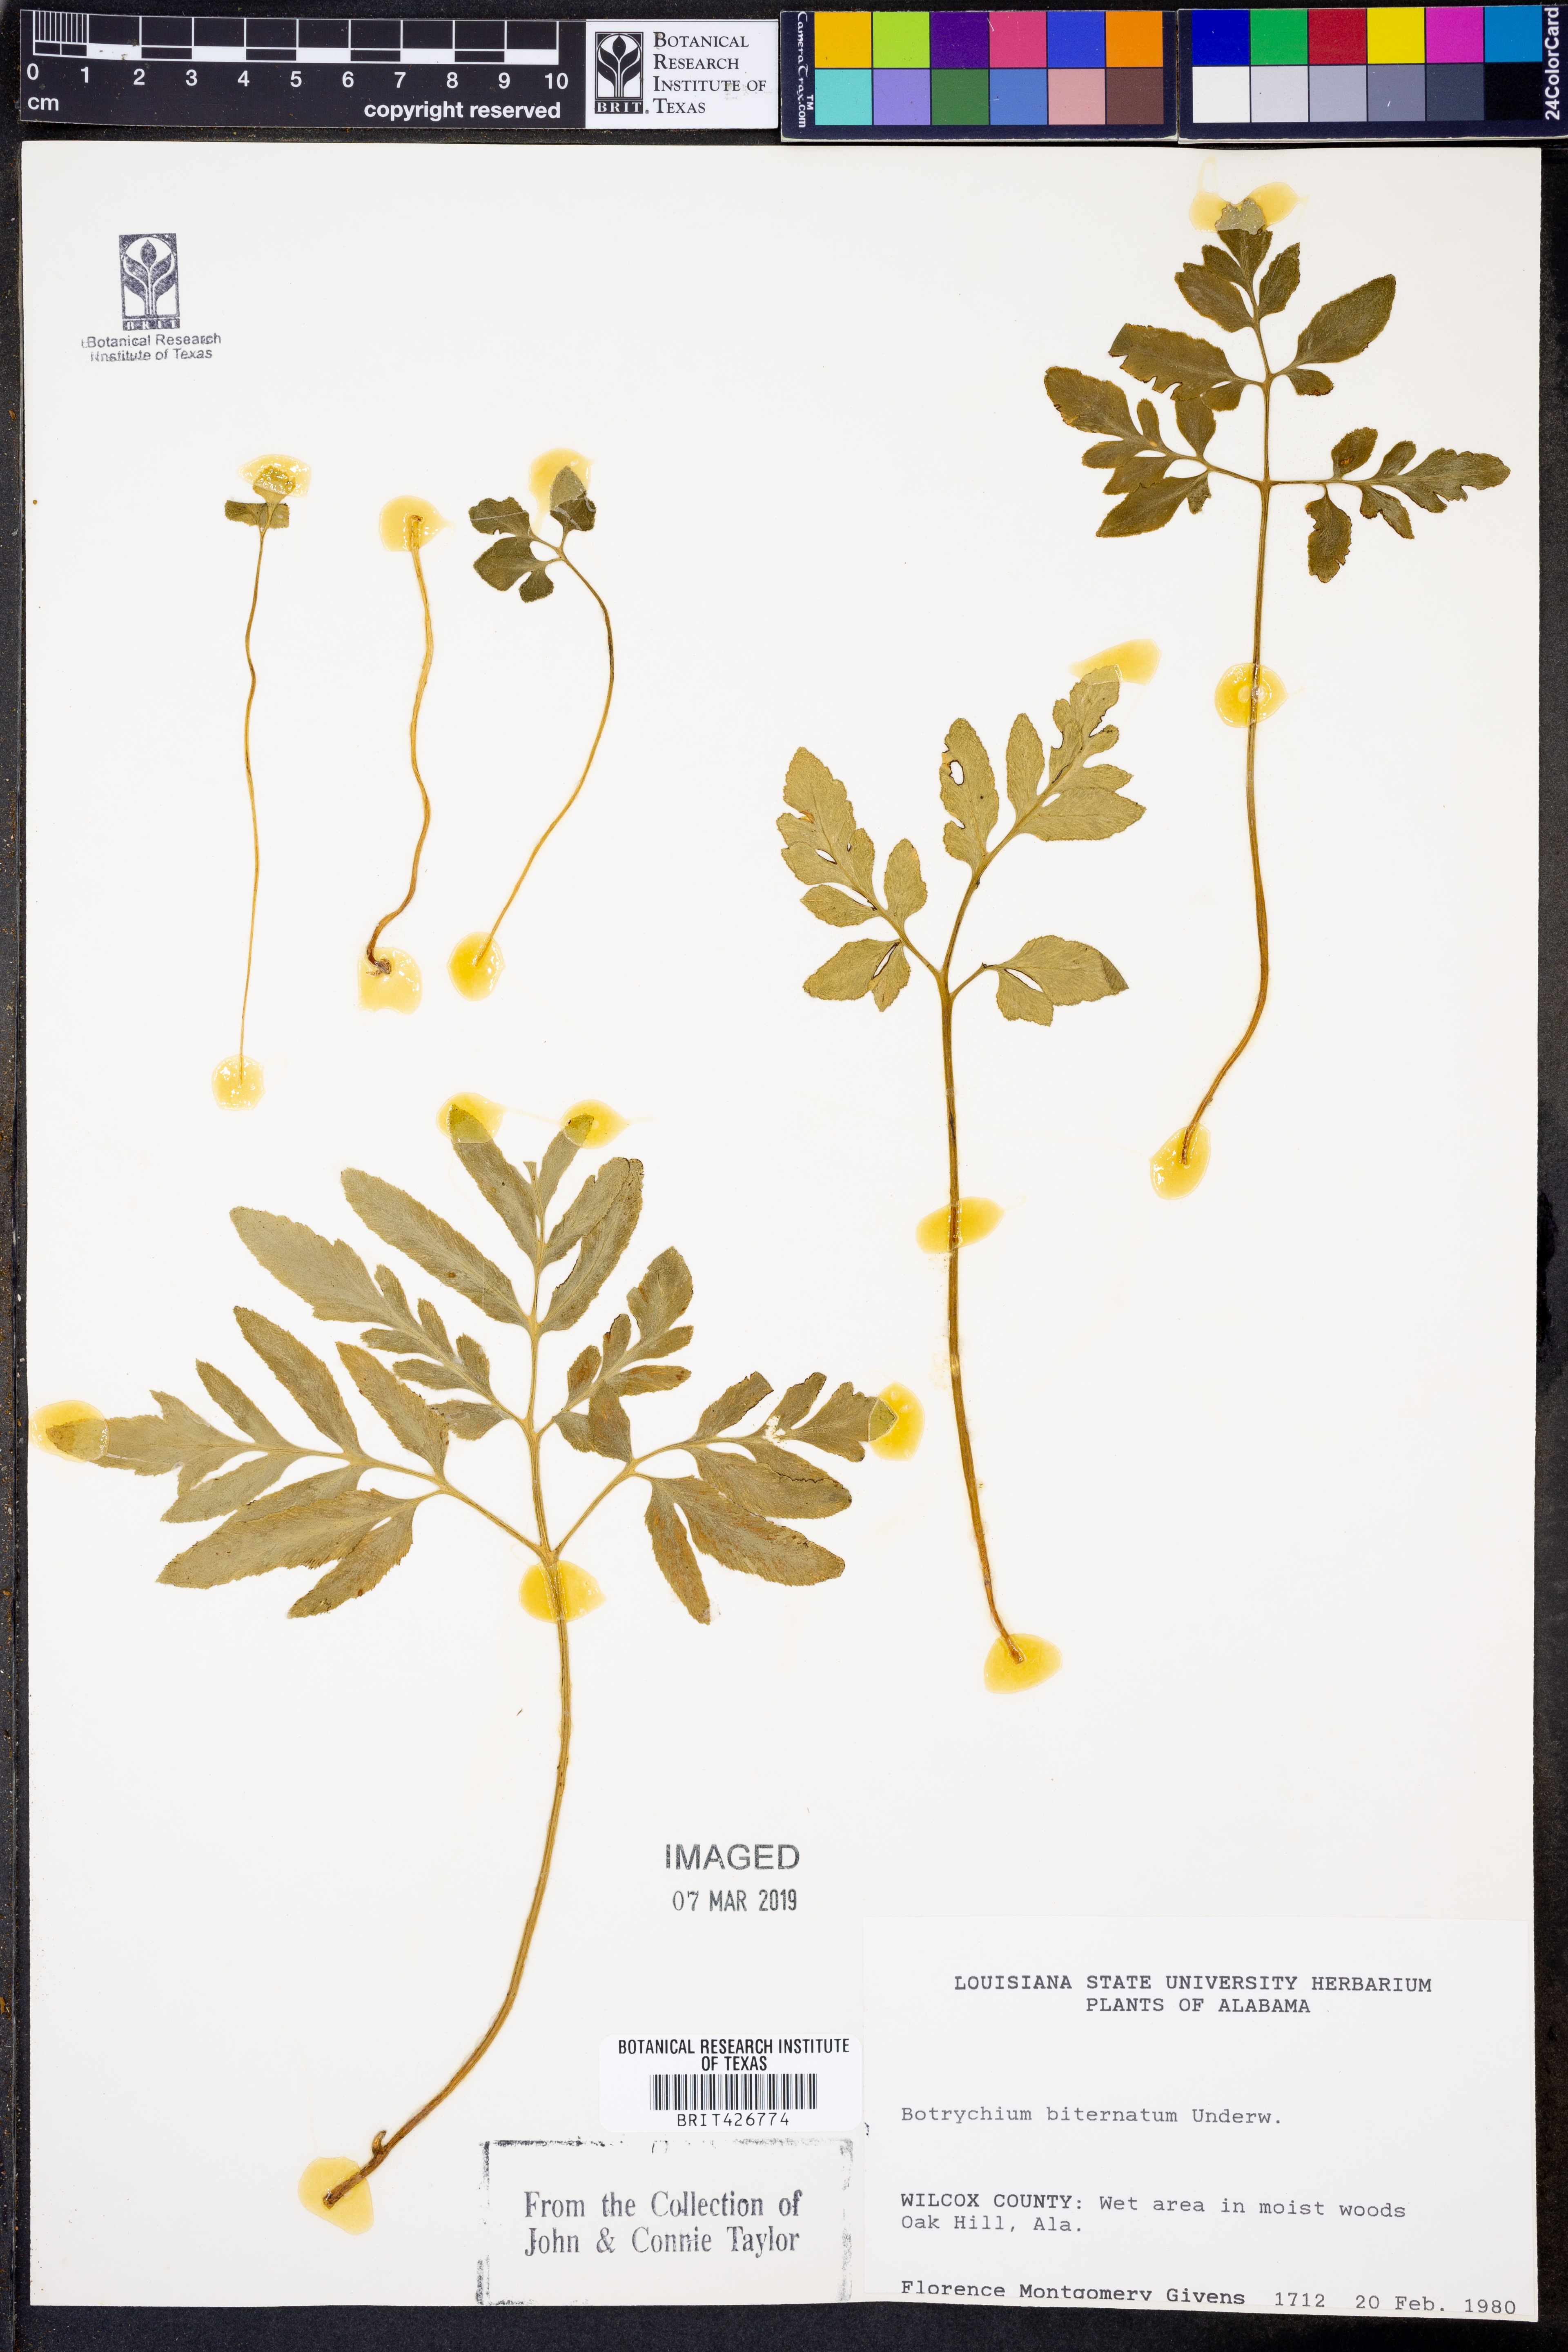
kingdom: Plantae
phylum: Tracheophyta
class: Polypodiopsida
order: Ophioglossales
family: Ophioglossaceae
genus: Sceptridium
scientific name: Sceptridium biternatum
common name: Sparse-lobed grapefern
